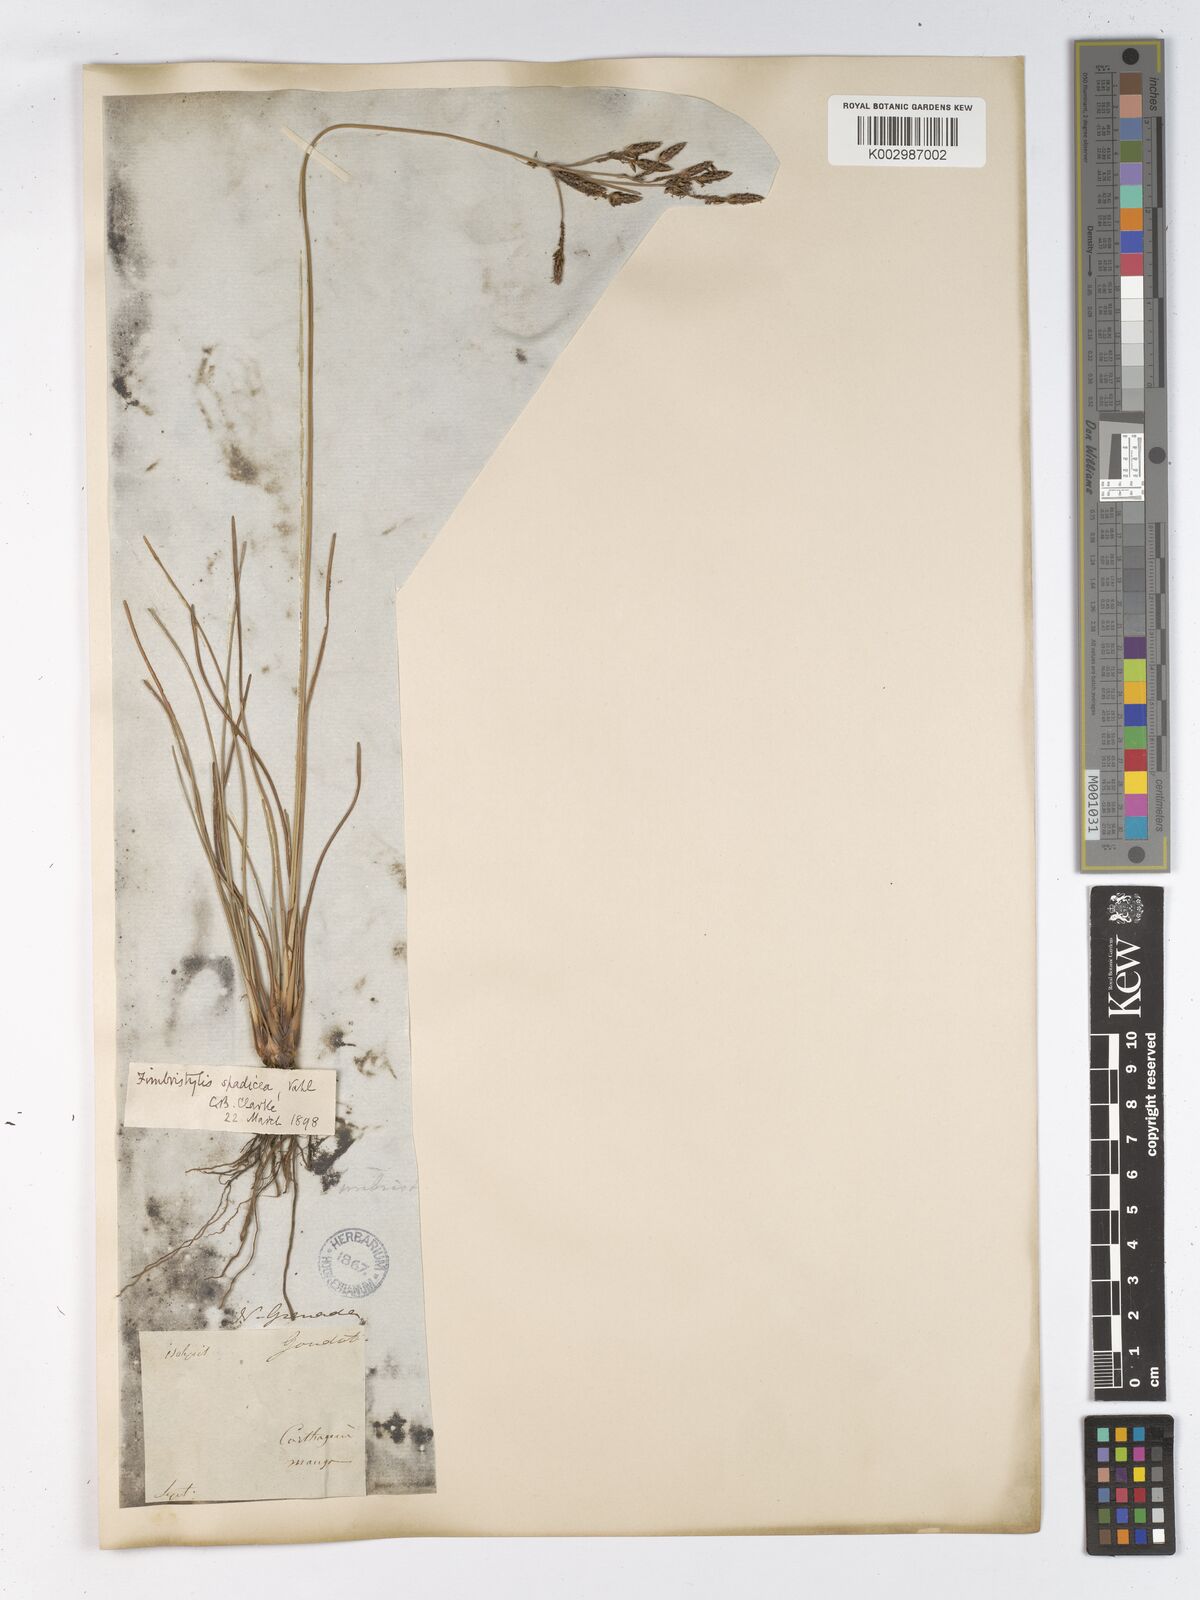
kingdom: Plantae
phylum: Tracheophyta
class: Liliopsida
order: Poales
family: Cyperaceae
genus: Fimbristylis
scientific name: Fimbristylis spadicea
